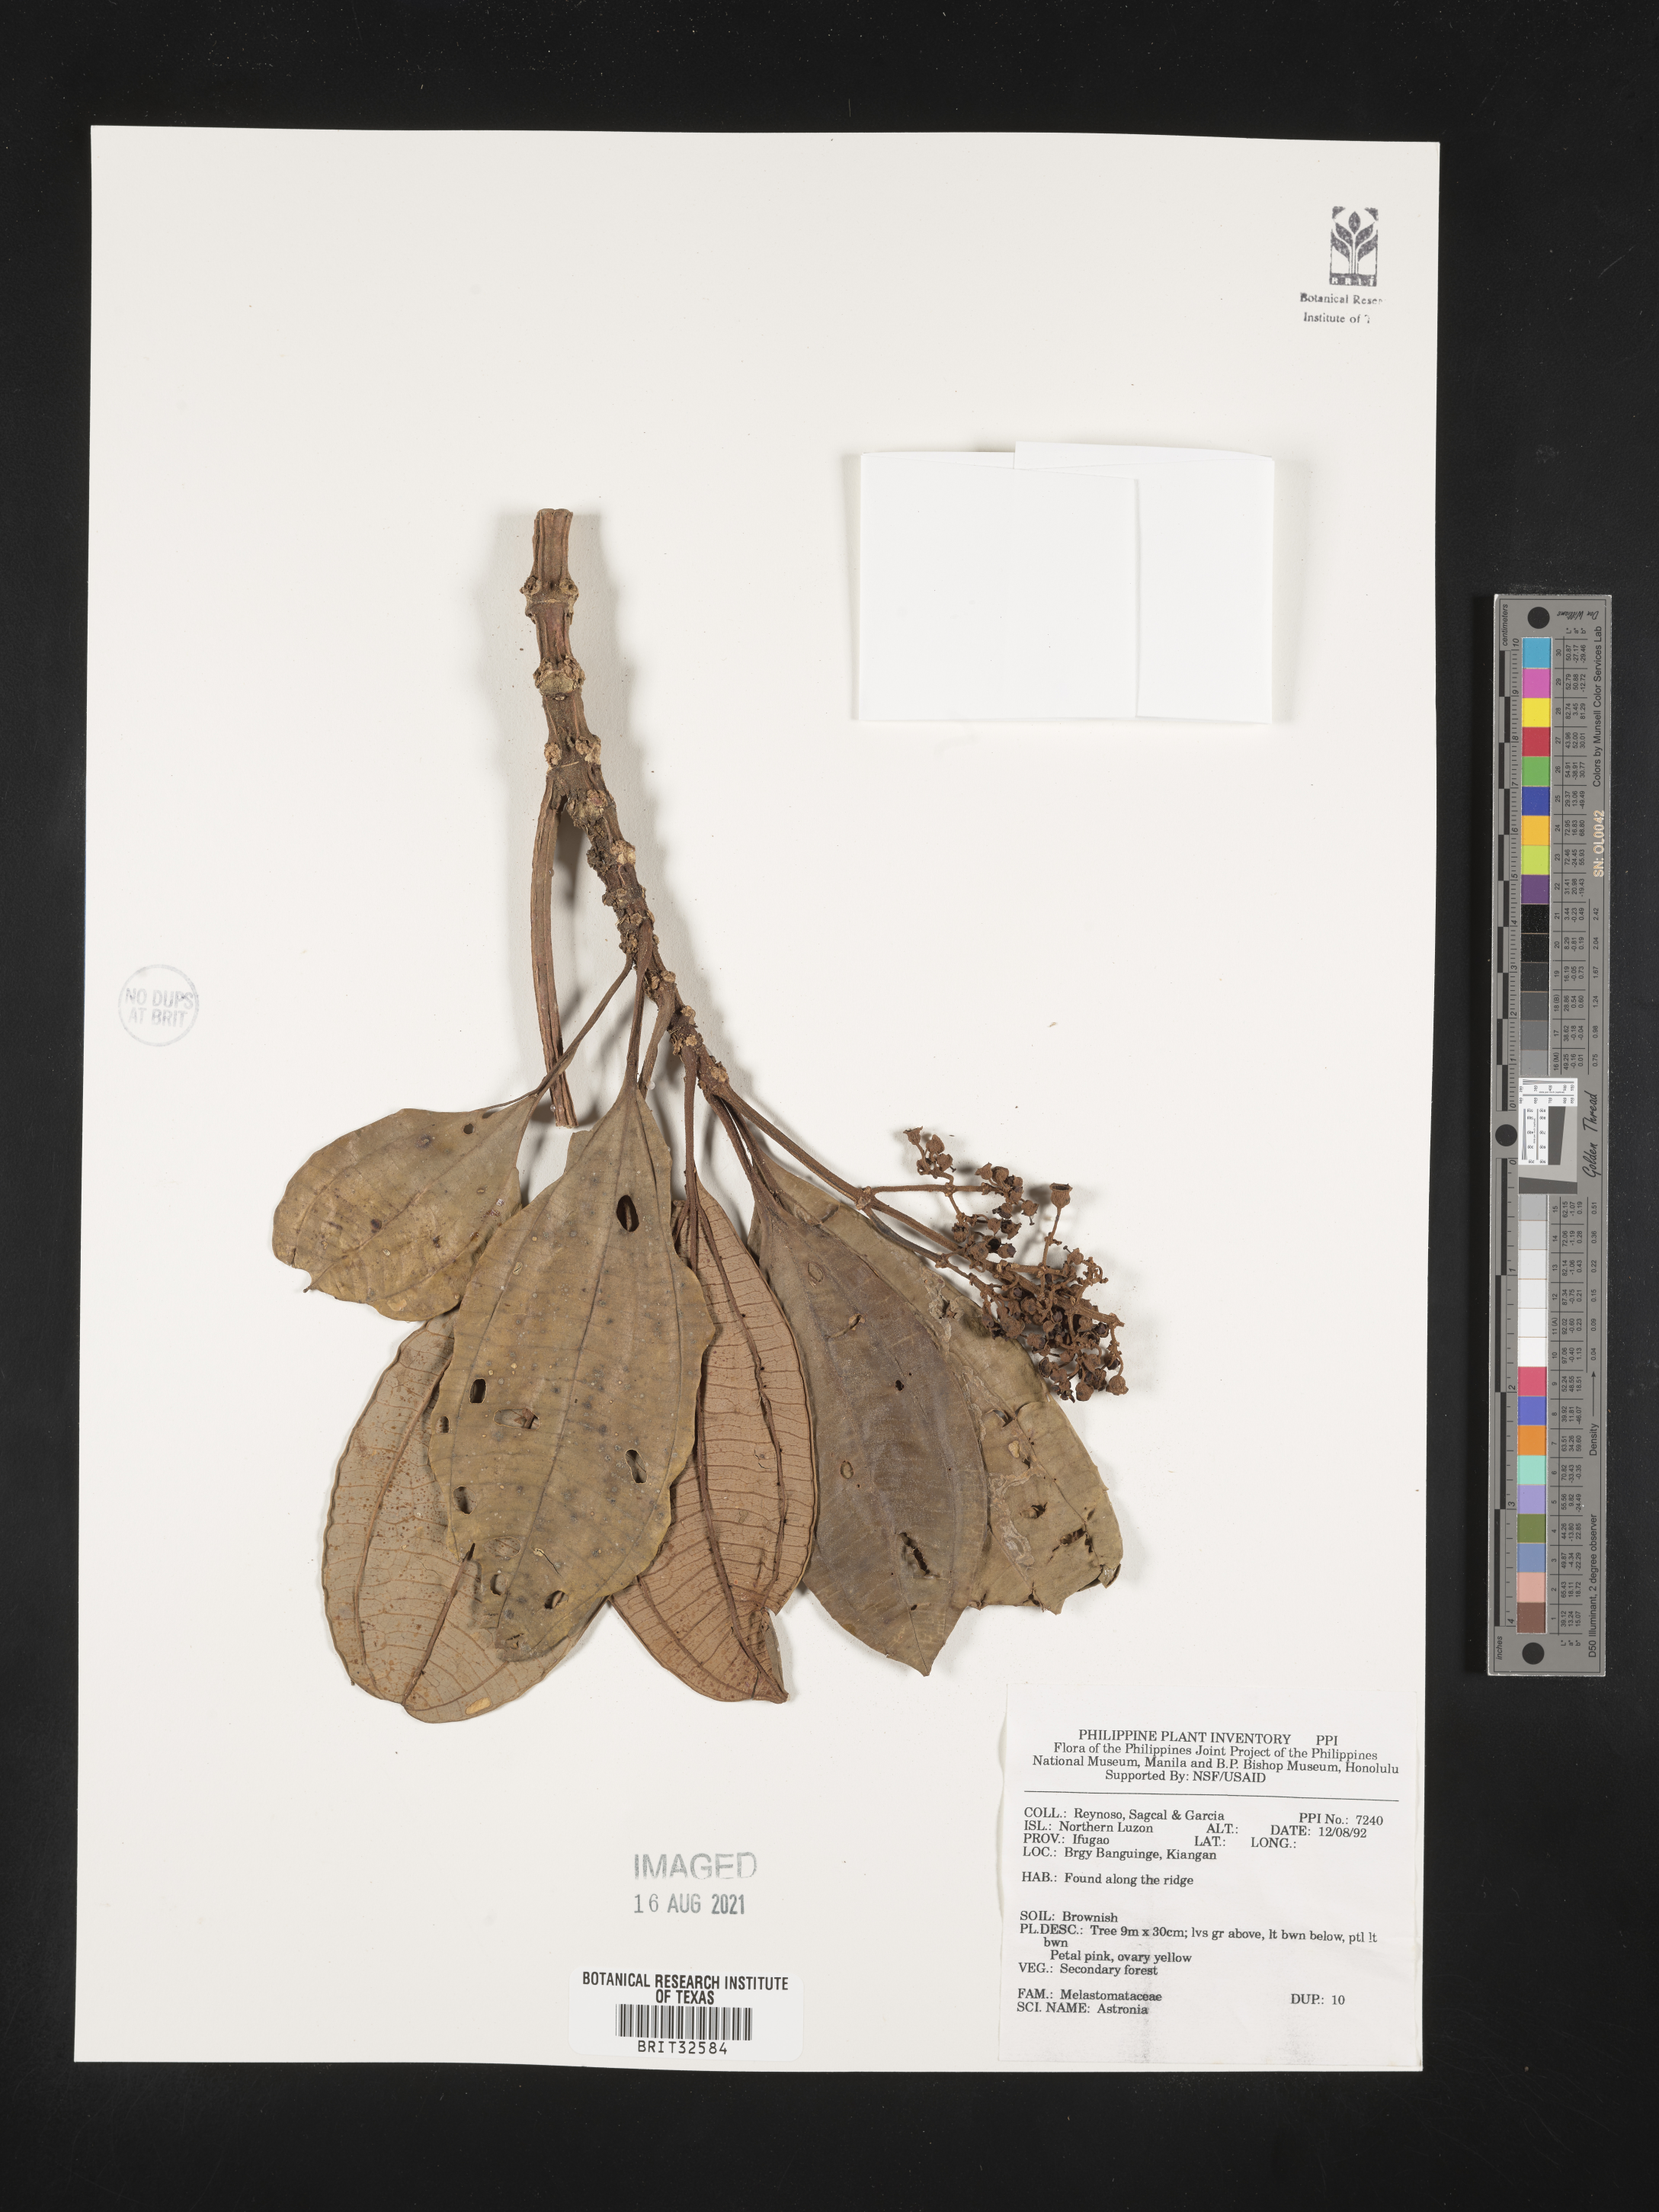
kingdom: Plantae
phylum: Tracheophyta
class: Magnoliopsida
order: Myrtales
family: Melastomataceae
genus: Astronia
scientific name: Astronia
